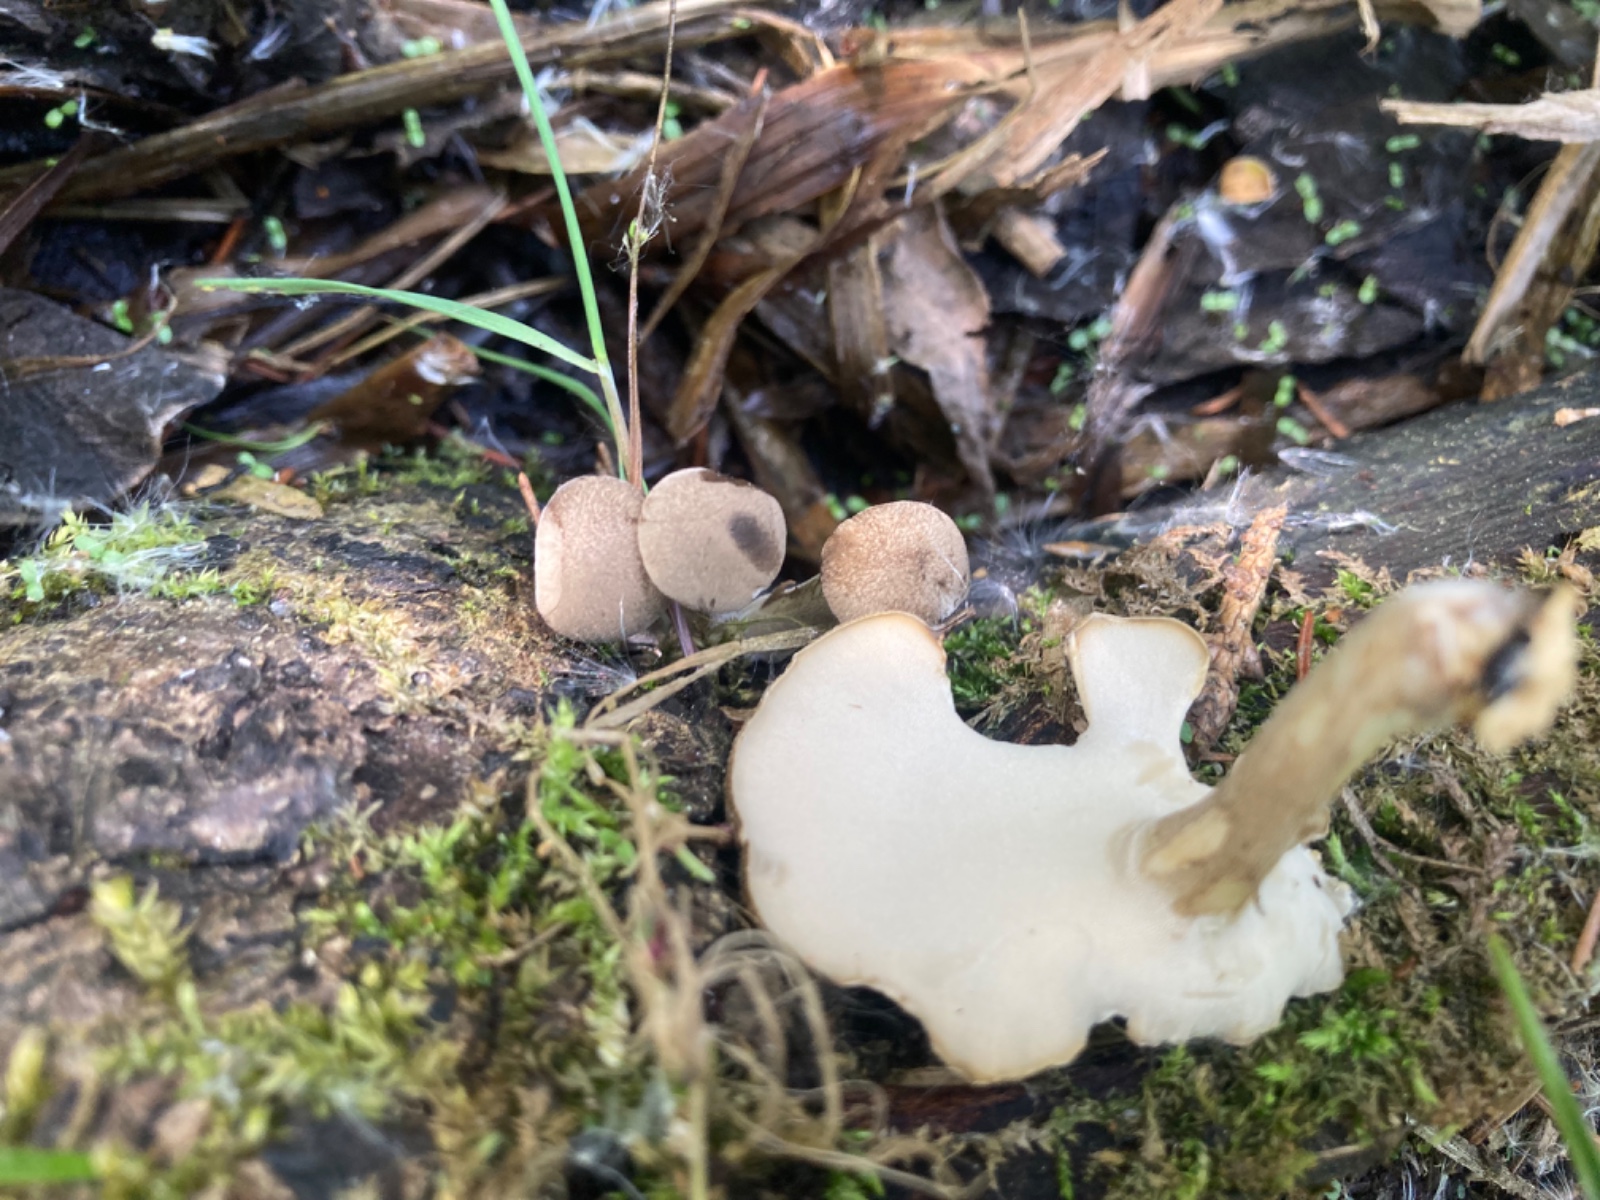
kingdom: Fungi
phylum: Basidiomycota
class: Agaricomycetes
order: Polyporales
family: Polyporaceae
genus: Lentinus
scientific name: Lentinus substrictus
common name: forårs-stilkporesvamp
